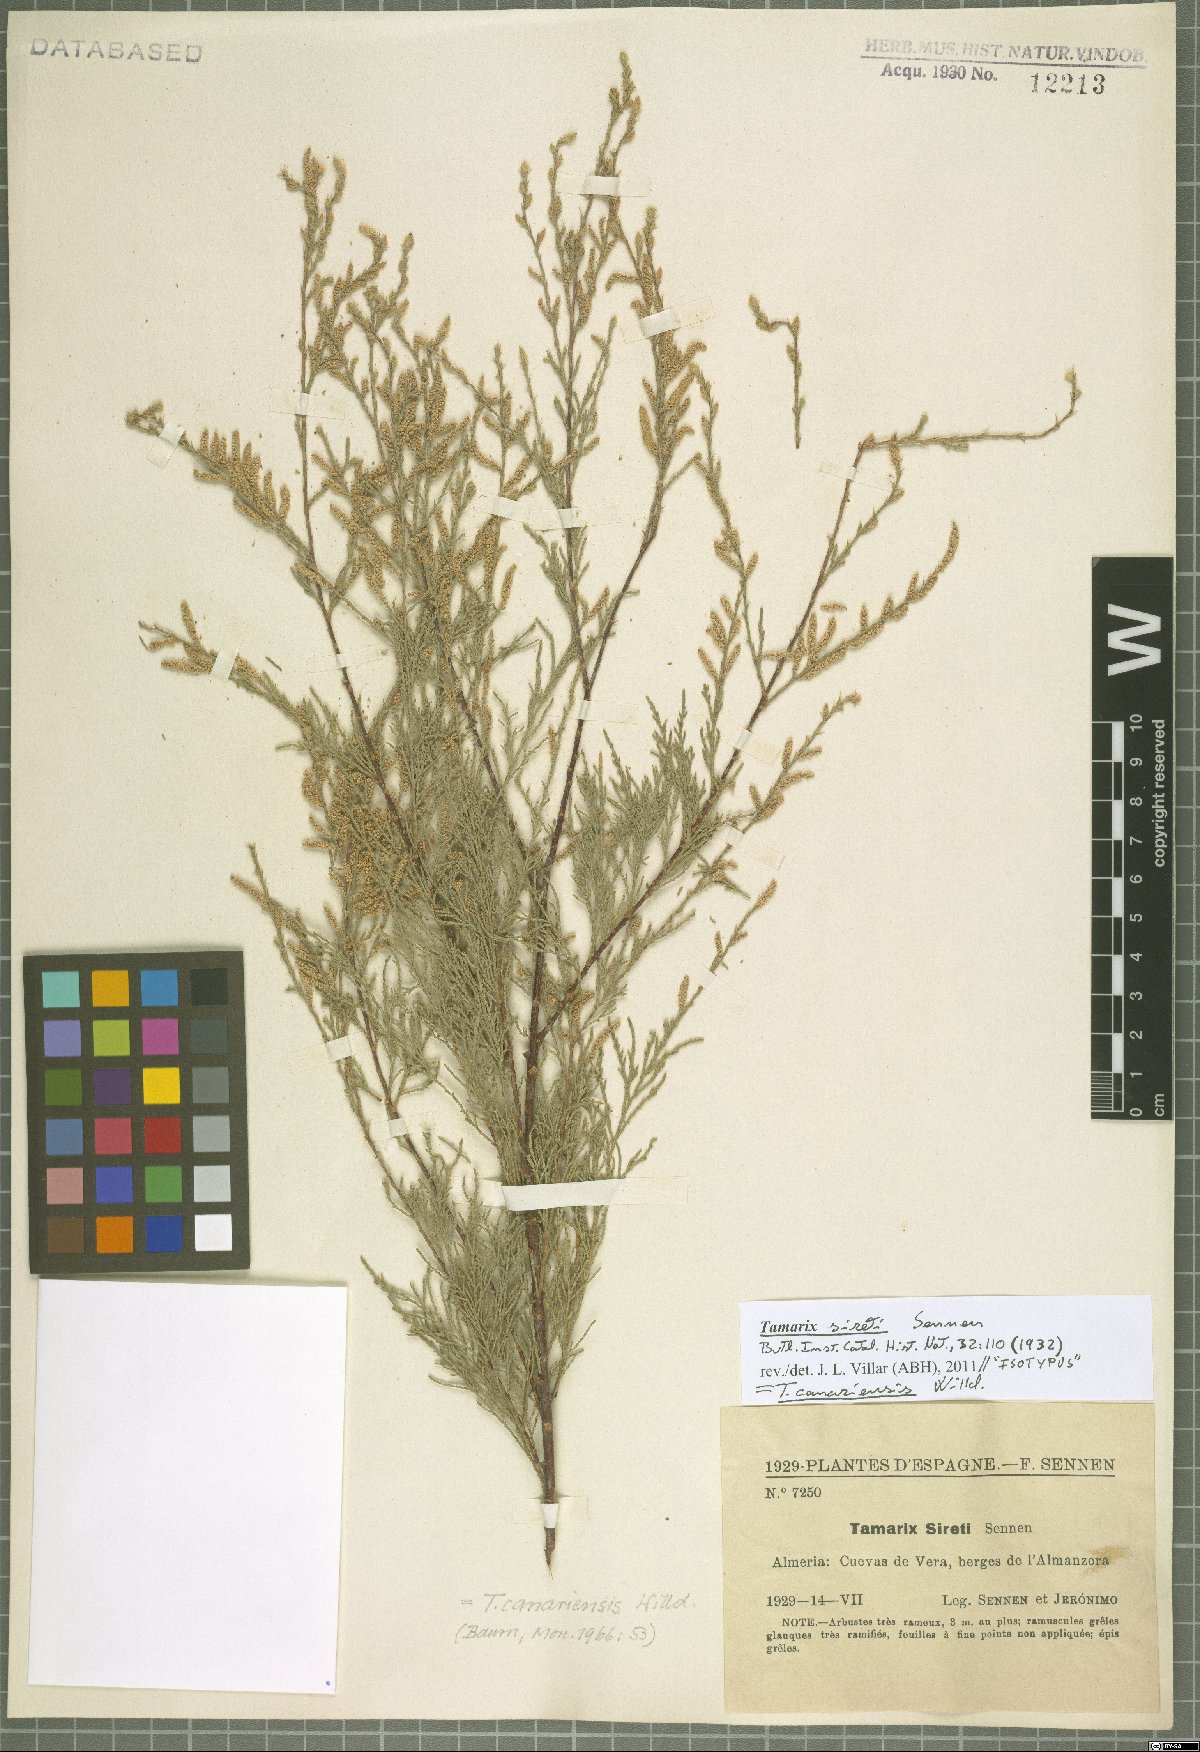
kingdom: Plantae
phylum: Tracheophyta
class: Magnoliopsida
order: Caryophyllales
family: Tamaricaceae
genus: Tamarix
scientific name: Tamarix canariensis
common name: Canary island tamarisk
